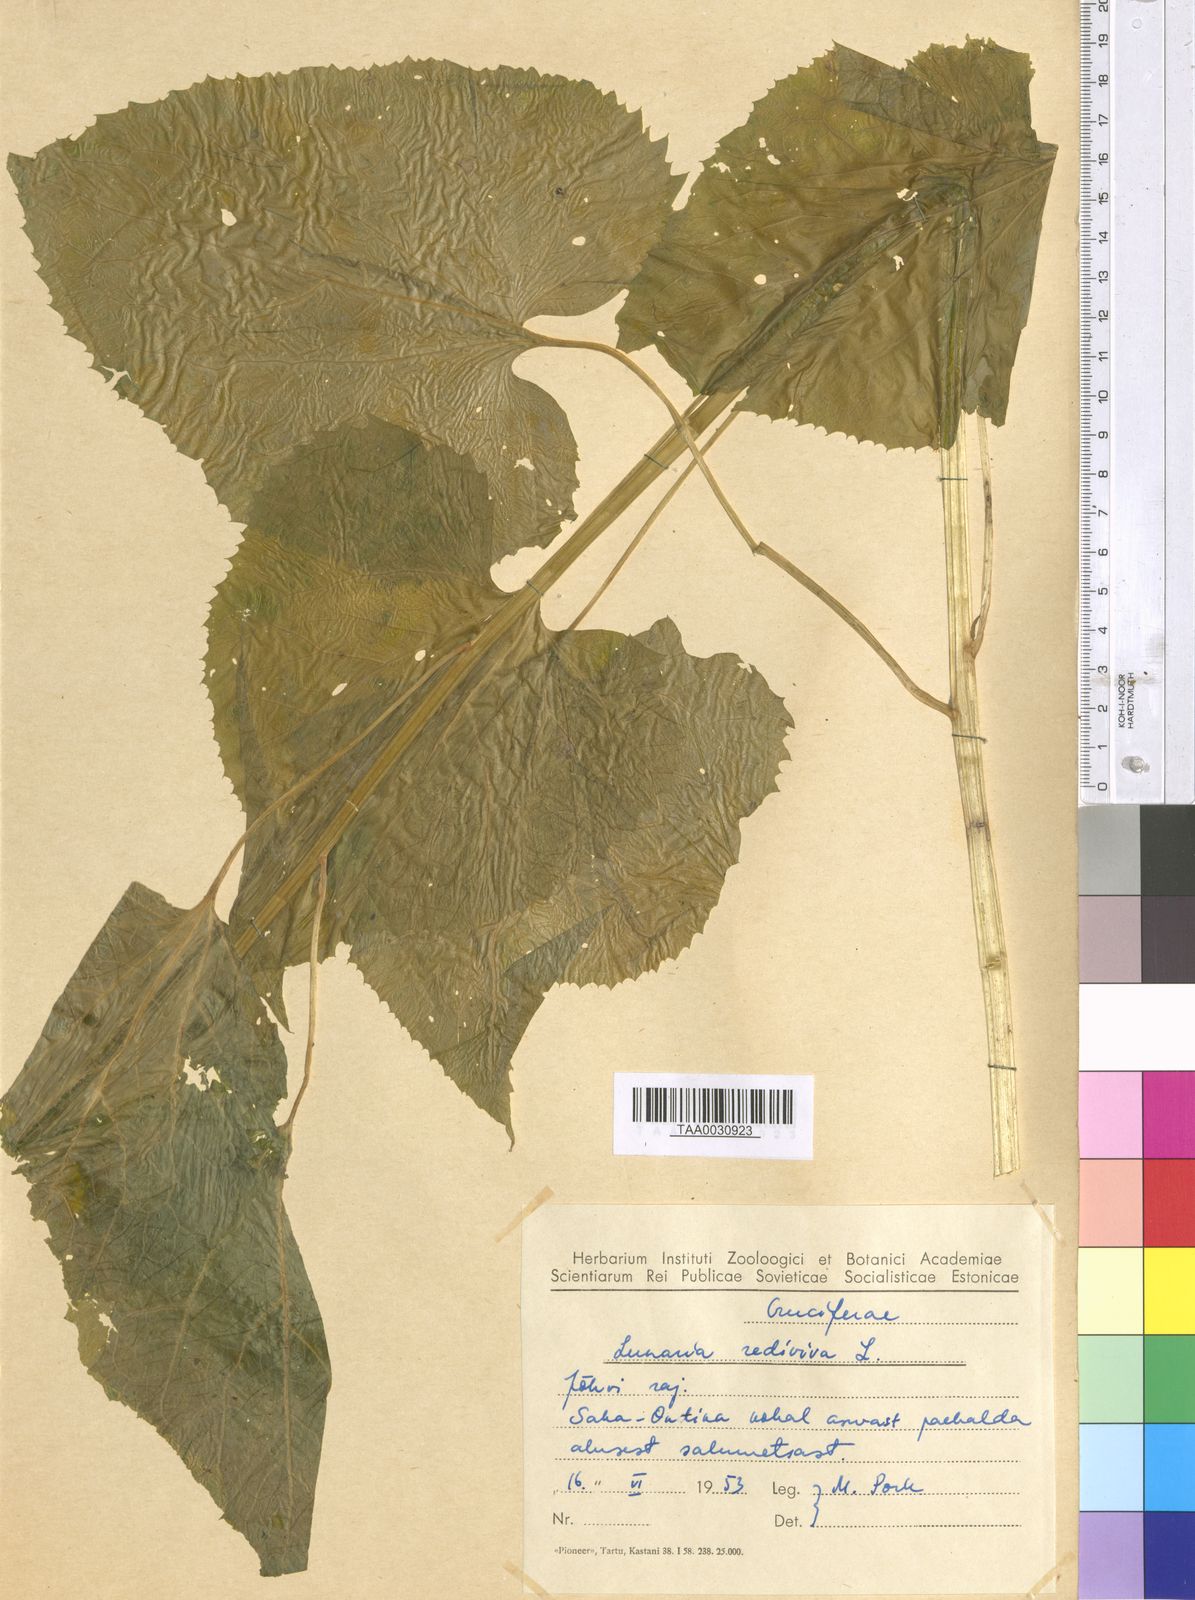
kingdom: Plantae
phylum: Tracheophyta
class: Magnoliopsida
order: Brassicales
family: Brassicaceae
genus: Lunaria
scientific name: Lunaria rediviva
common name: Perennial honesty
